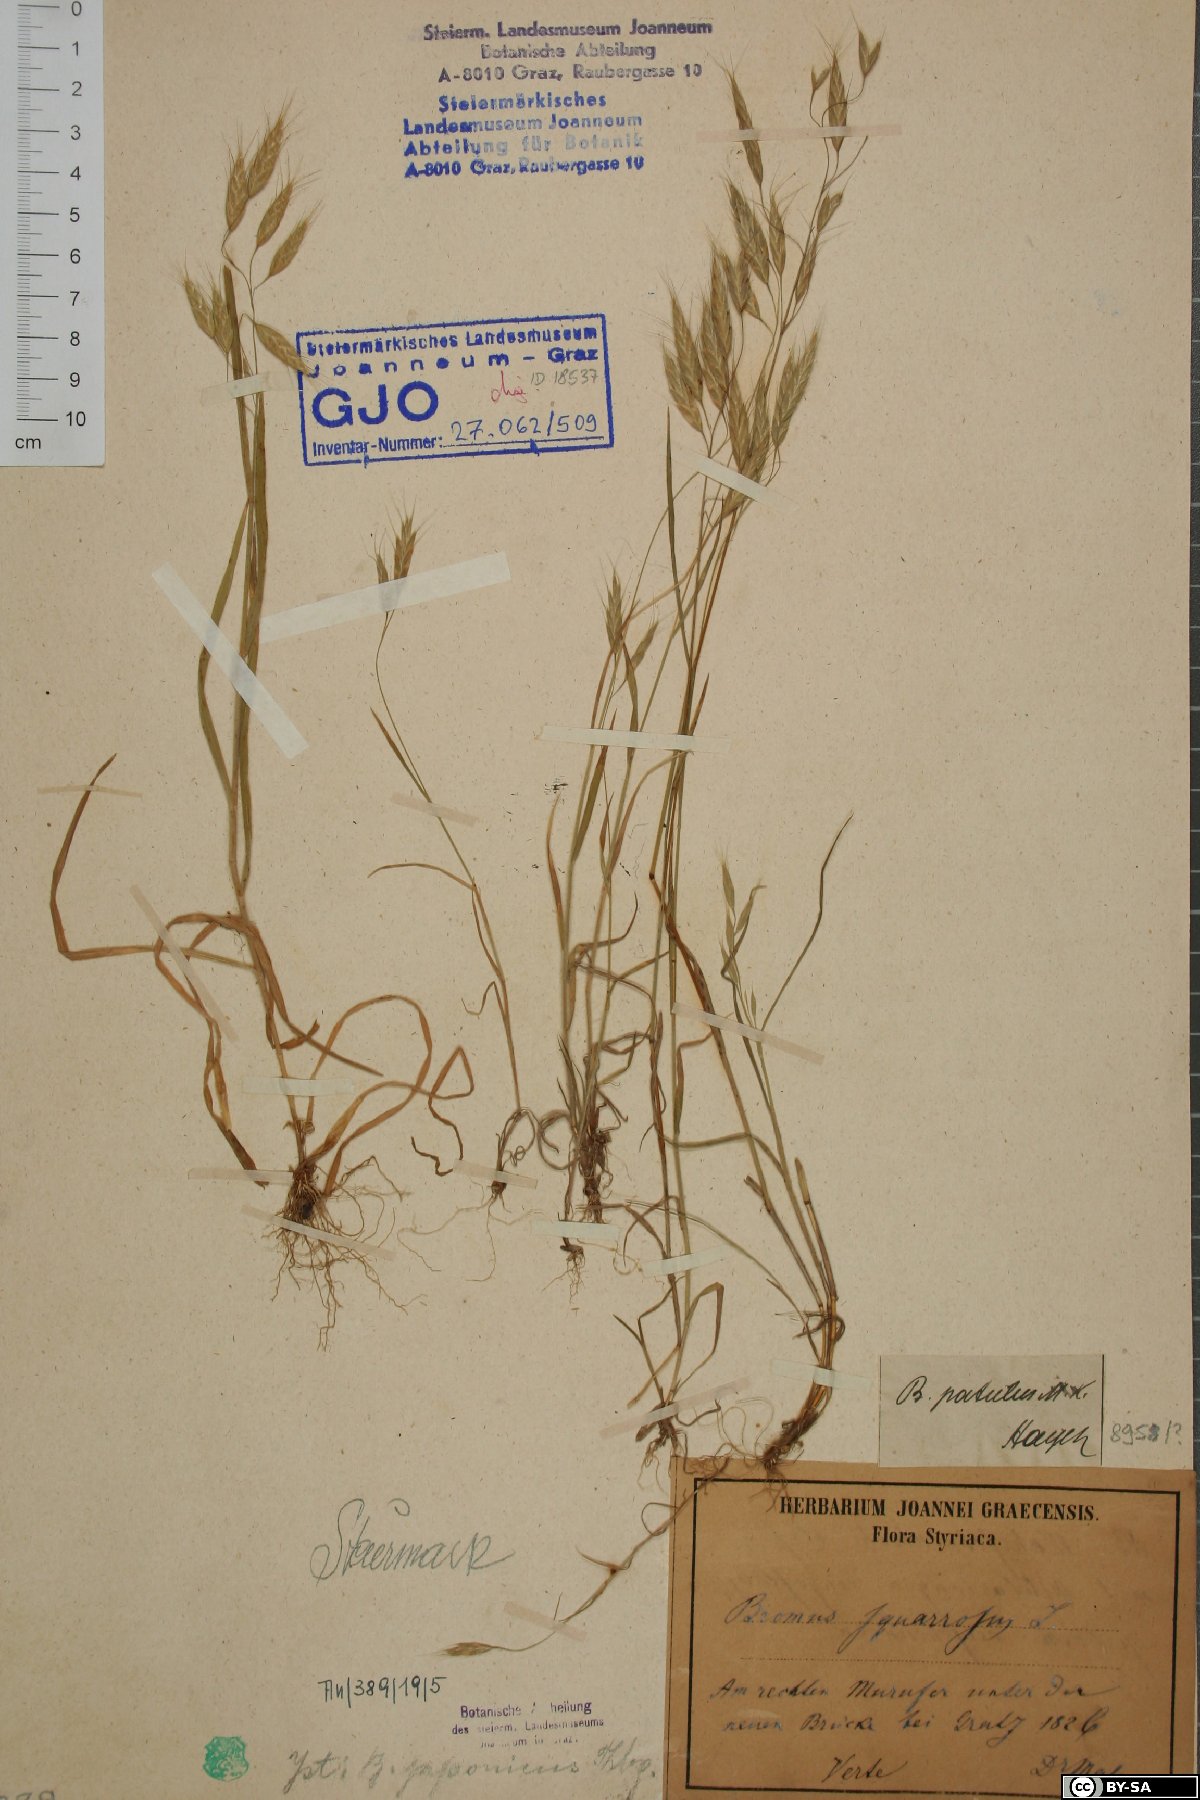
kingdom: Plantae
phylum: Tracheophyta
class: Liliopsida
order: Poales
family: Poaceae
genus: Bromus
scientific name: Bromus japonicus
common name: Japanese brome
